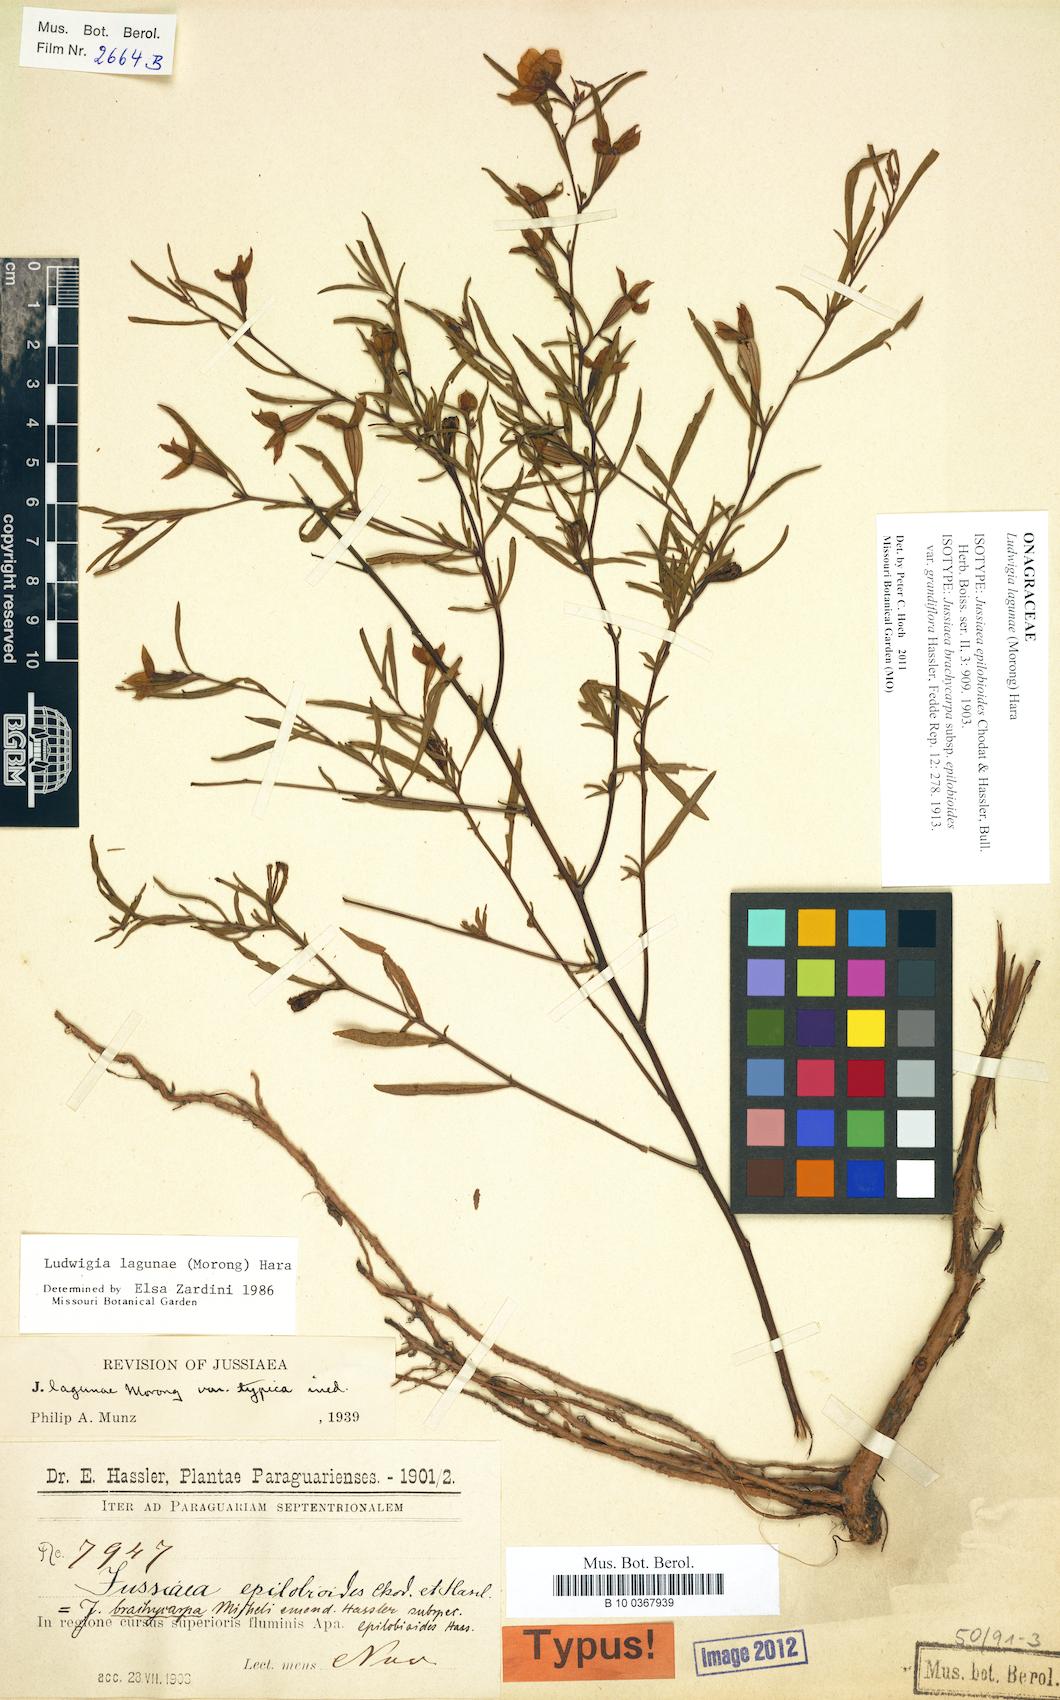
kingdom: Plantae
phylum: Tracheophyta
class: Magnoliopsida
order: Myrtales
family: Onagraceae
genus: Ludwigia
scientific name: Ludwigia lagunae
